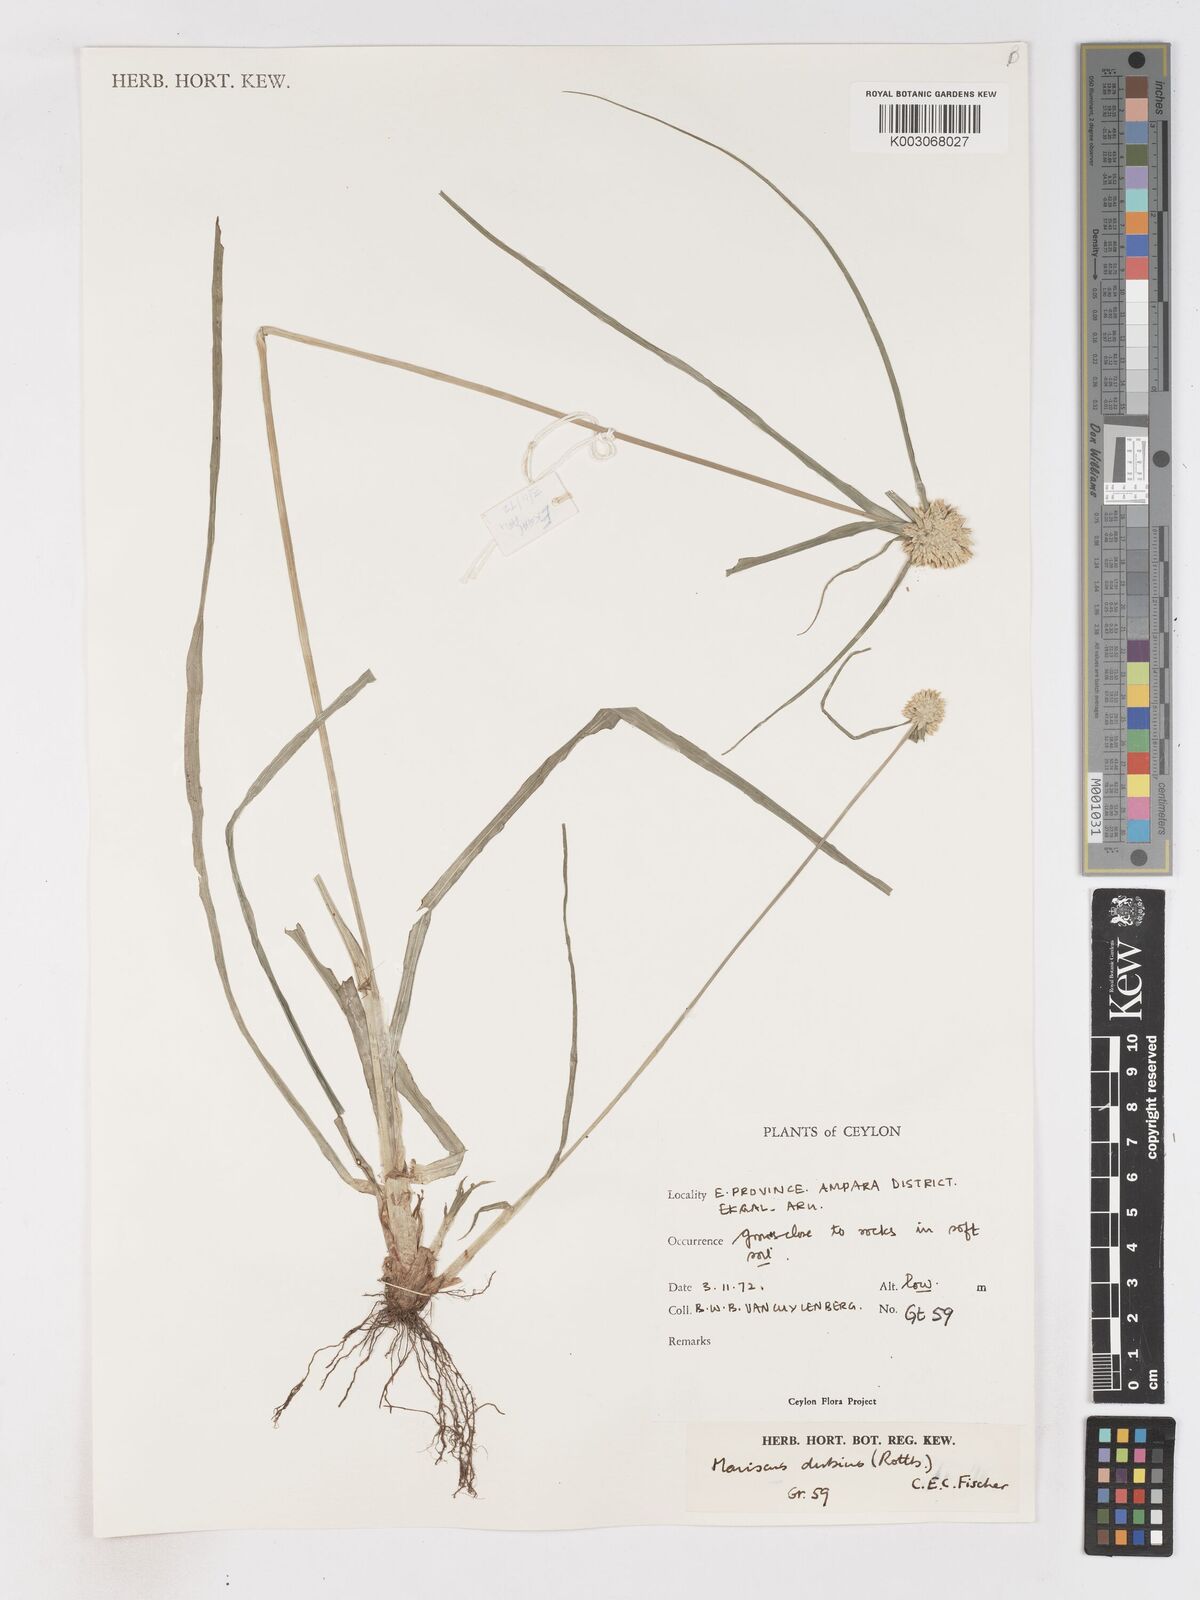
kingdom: Plantae
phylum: Tracheophyta
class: Liliopsida
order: Poales
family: Cyperaceae
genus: Cyperus
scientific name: Cyperus dubius
